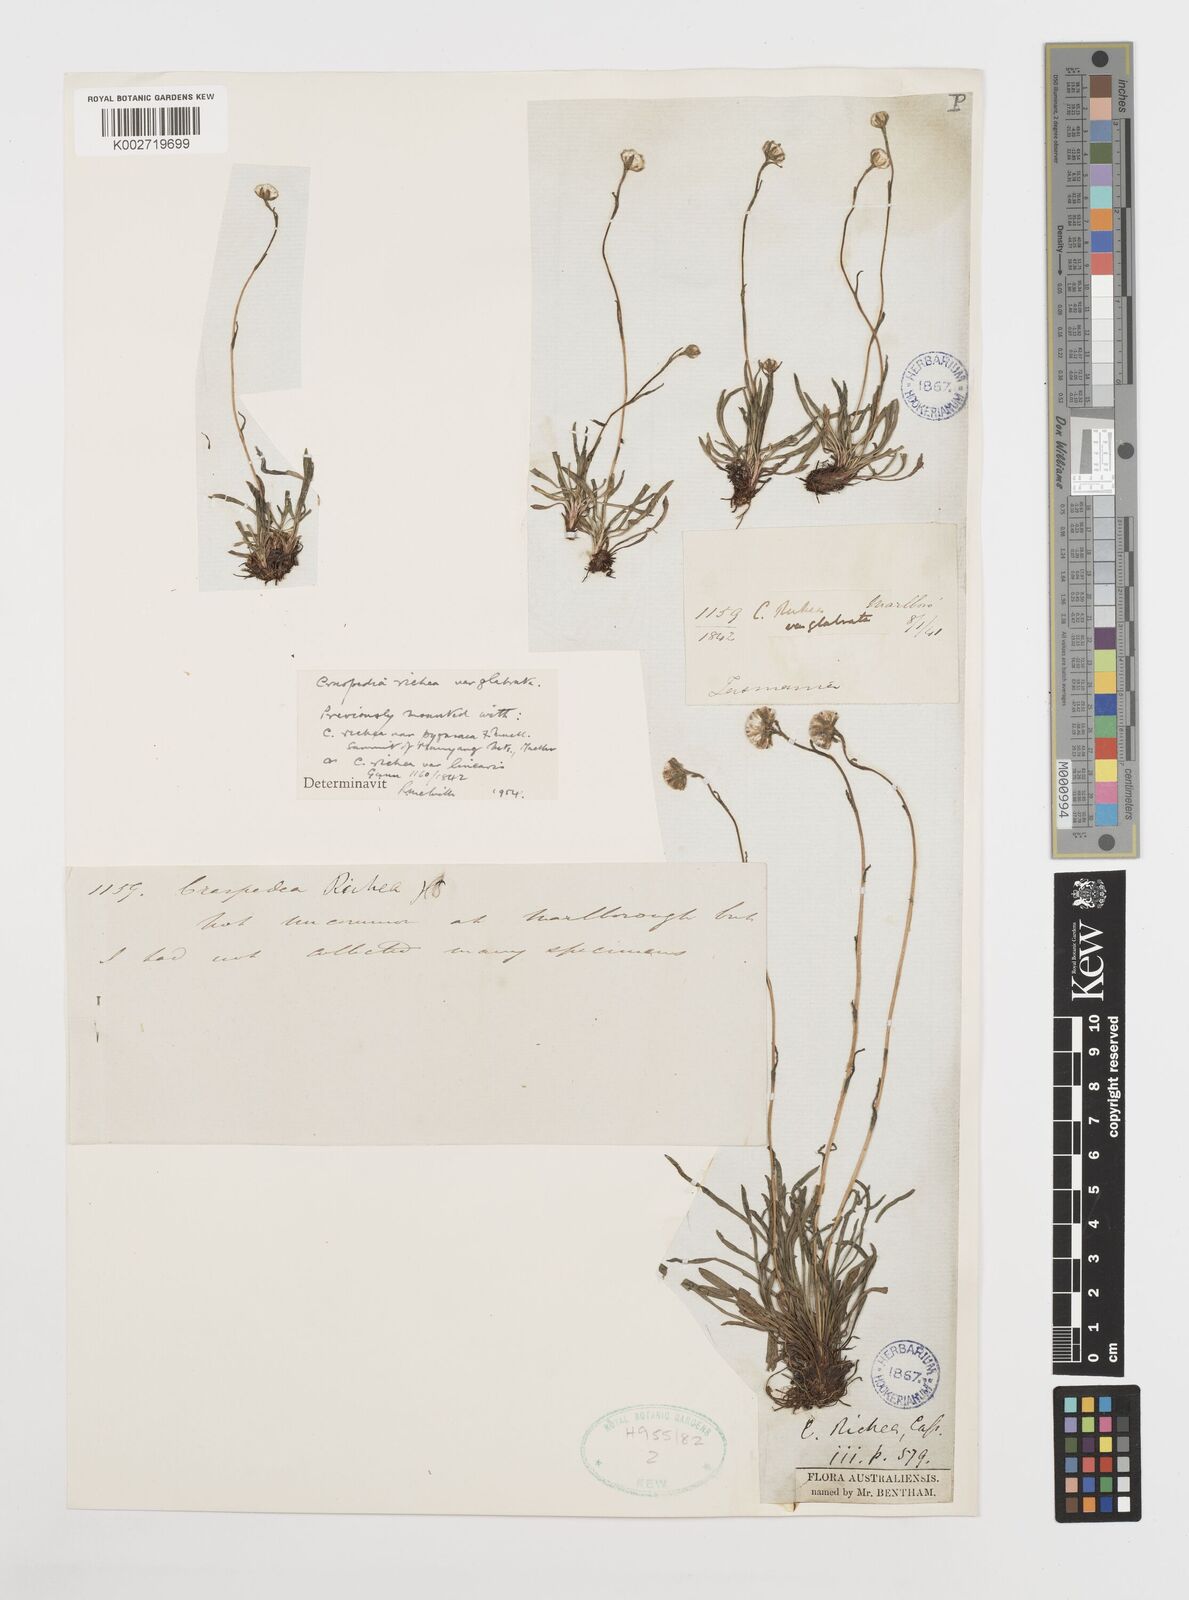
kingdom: Plantae
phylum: Tracheophyta
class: Magnoliopsida
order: Asterales
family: Asteraceae
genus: Craspedia
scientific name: Craspedia glauca
